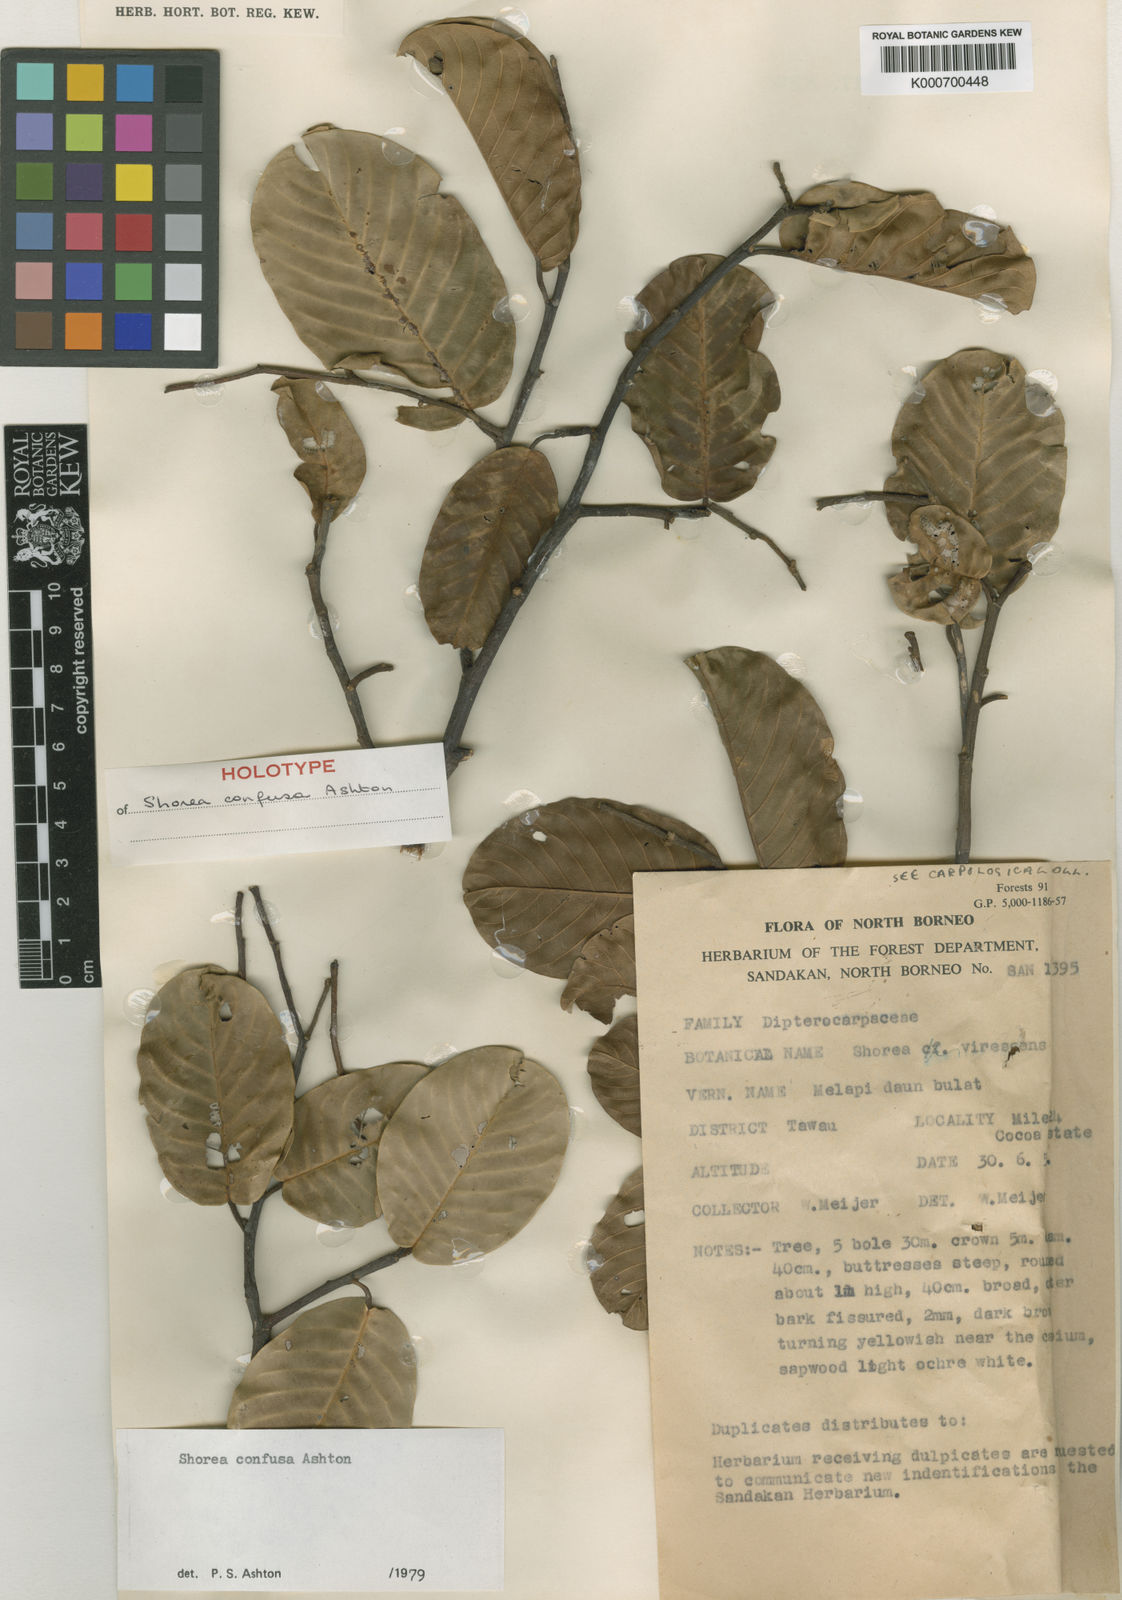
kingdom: Plantae
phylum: Tracheophyta
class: Magnoliopsida
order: Malvales
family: Dipterocarpaceae
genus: Anthoshorea
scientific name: Anthoshorea confusa
